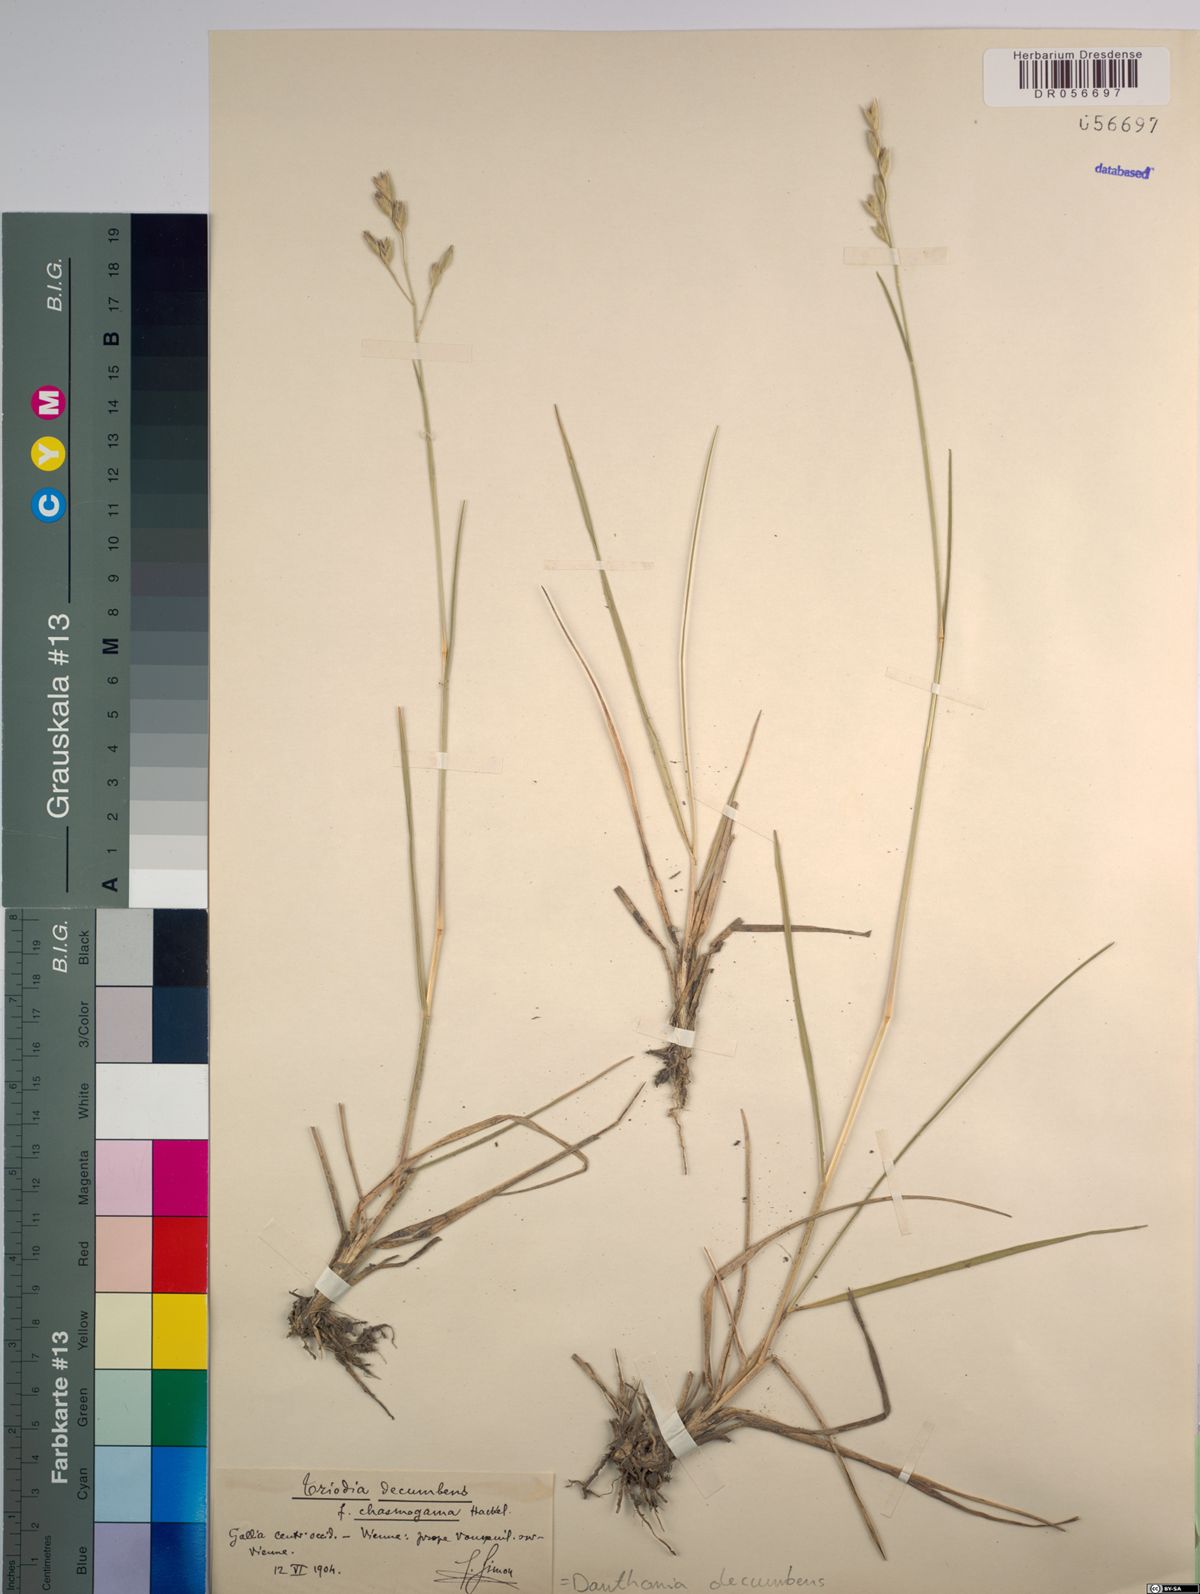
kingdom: Plantae
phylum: Tracheophyta
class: Liliopsida
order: Poales
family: Poaceae
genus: Danthonia
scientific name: Danthonia decumbens
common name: Common heathgrass
